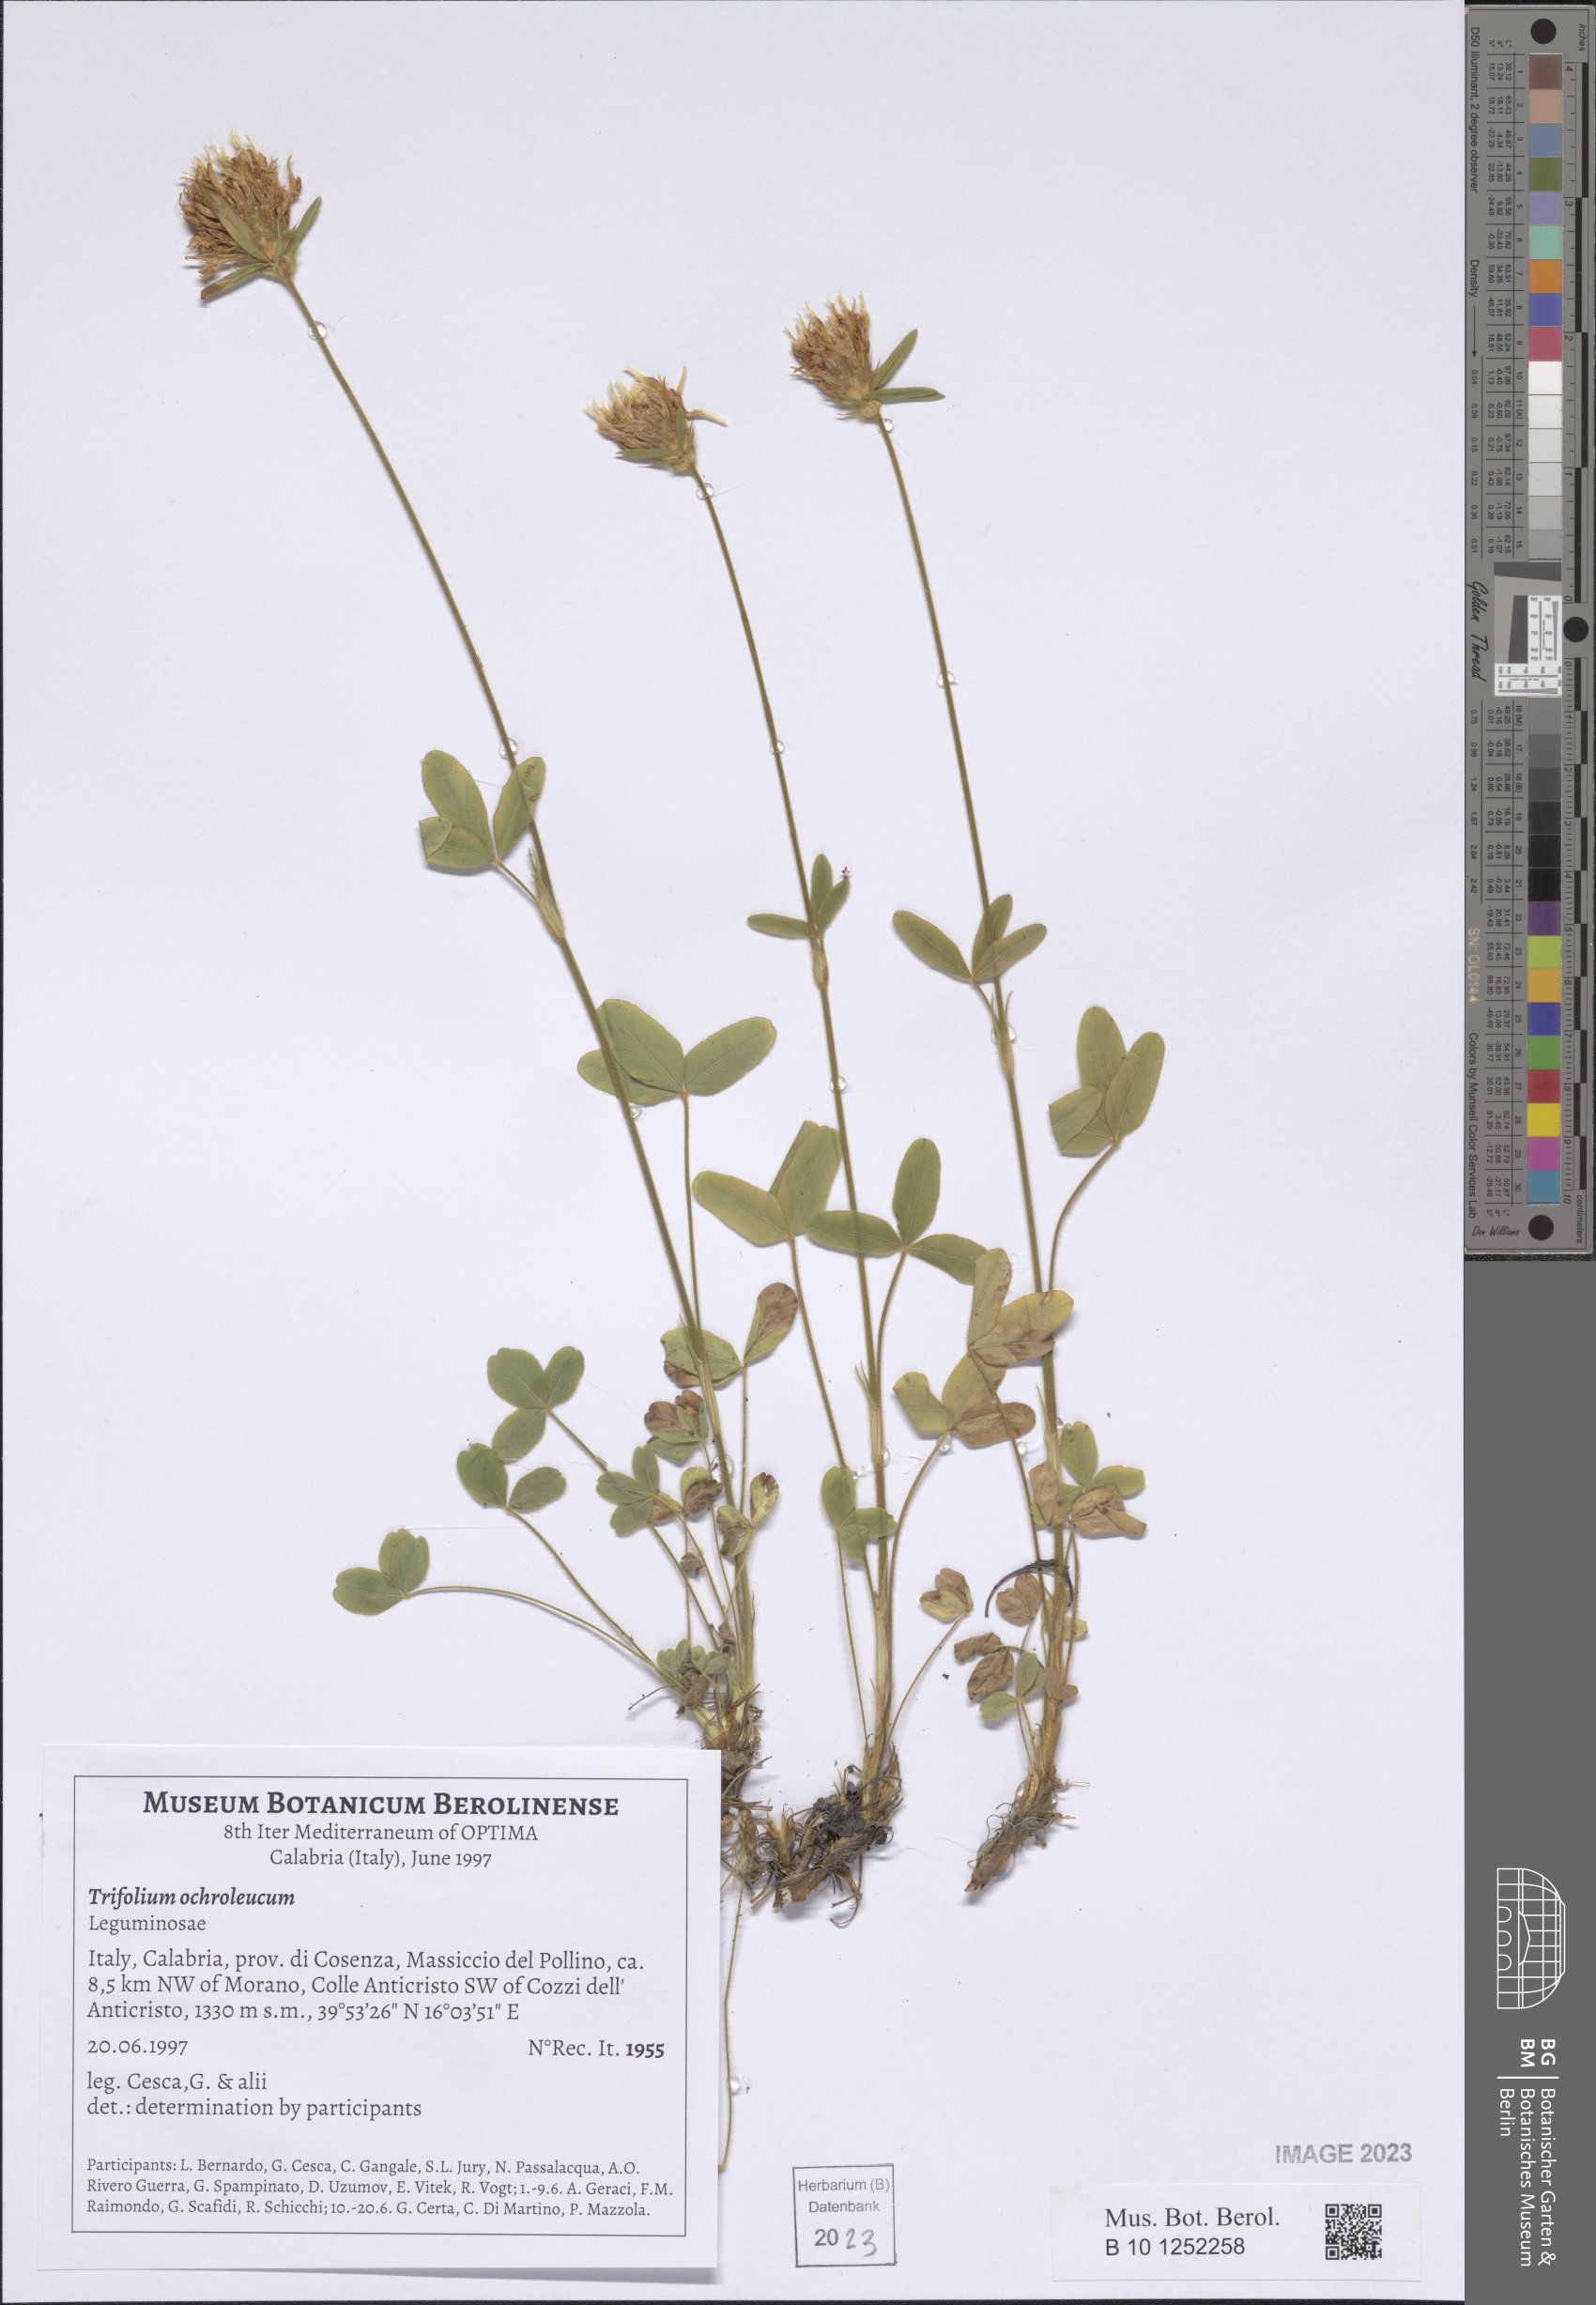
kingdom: Plantae
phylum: Tracheophyta
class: Magnoliopsida
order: Fabales
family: Fabaceae
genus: Trifolium
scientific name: Trifolium ochroleucon
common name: Sulphur clover
